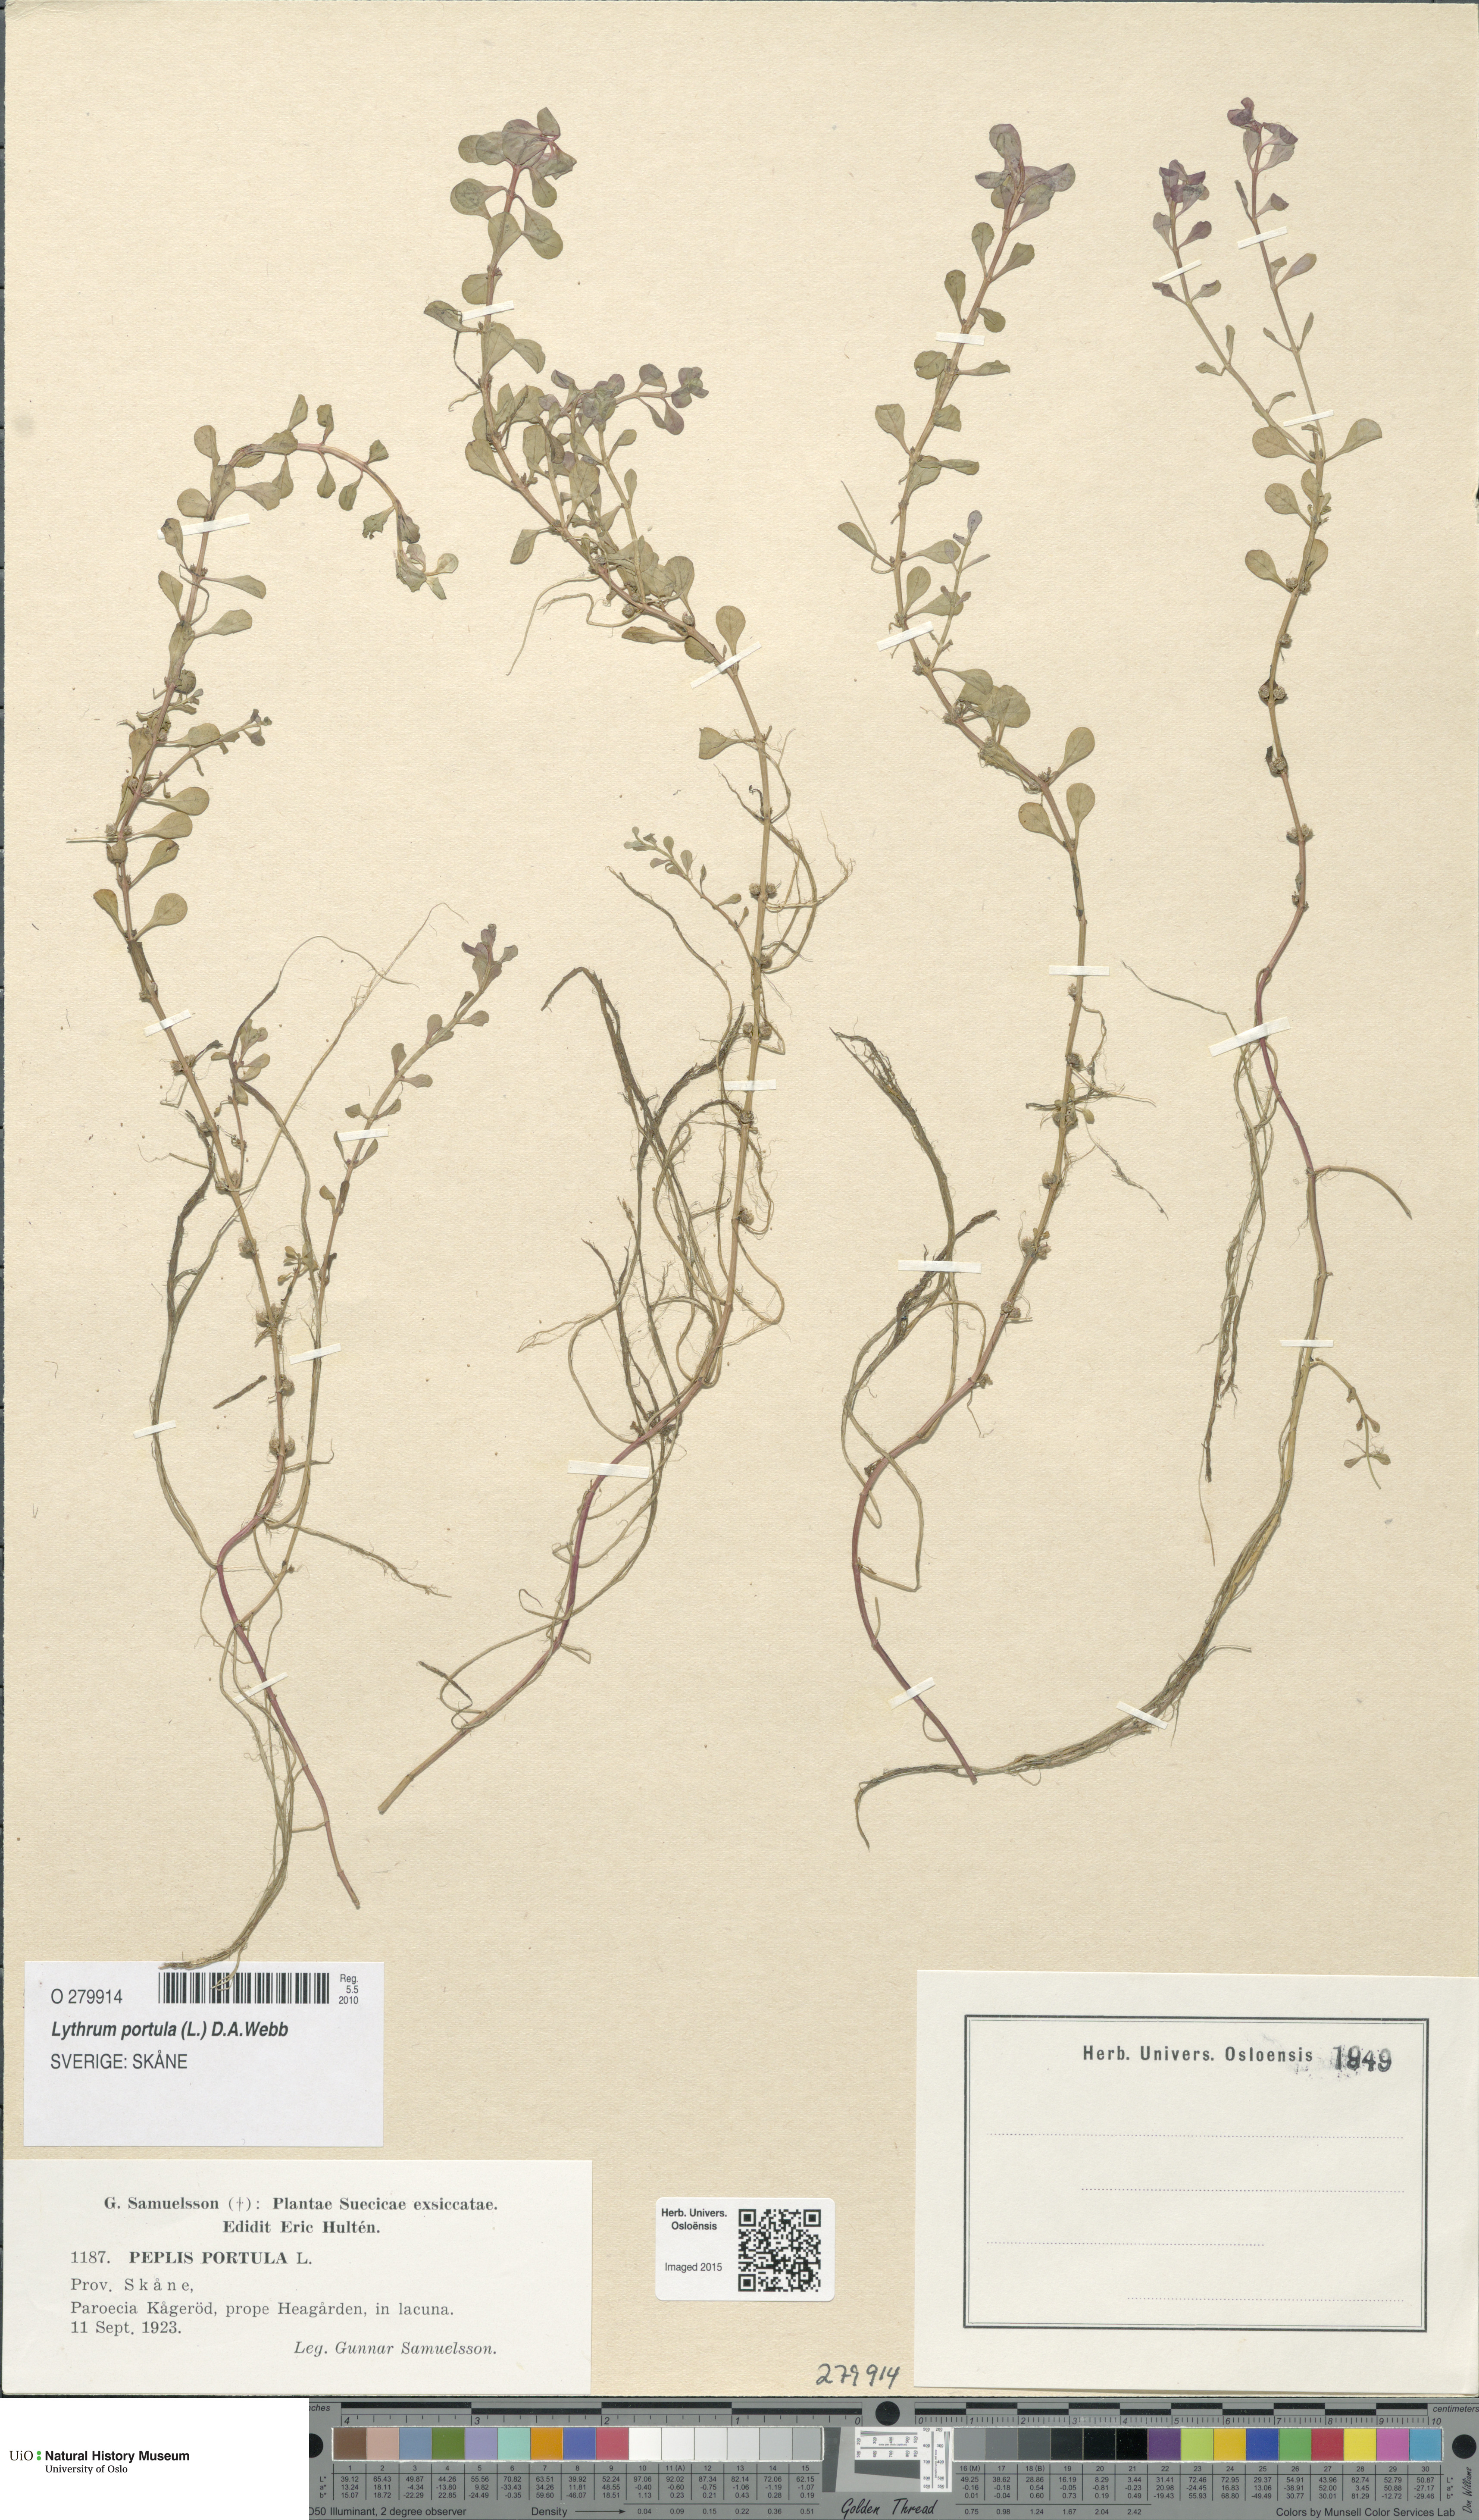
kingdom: Plantae
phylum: Tracheophyta
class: Magnoliopsida
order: Myrtales
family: Lythraceae
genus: Lythrum
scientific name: Lythrum portula
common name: Water purslane
